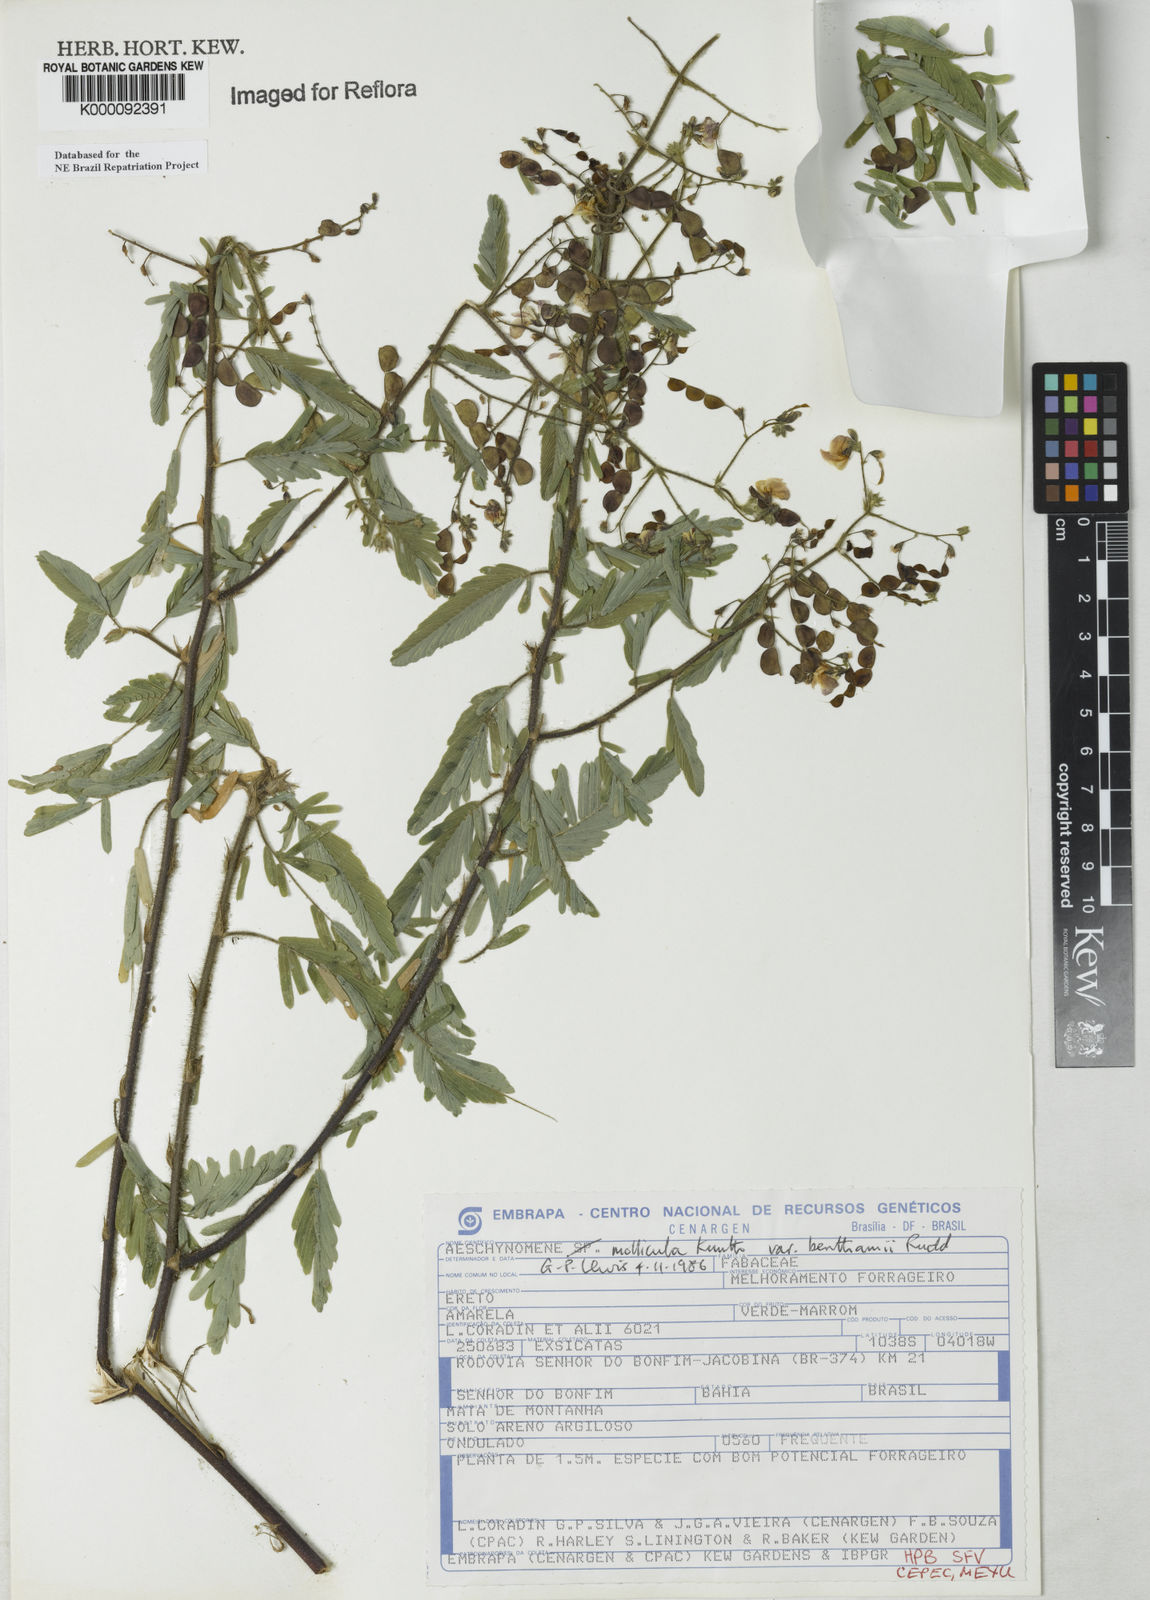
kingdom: Plantae
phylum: Tracheophyta
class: Magnoliopsida
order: Fabales
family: Fabaceae
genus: Aeschynomene
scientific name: Aeschynomene
